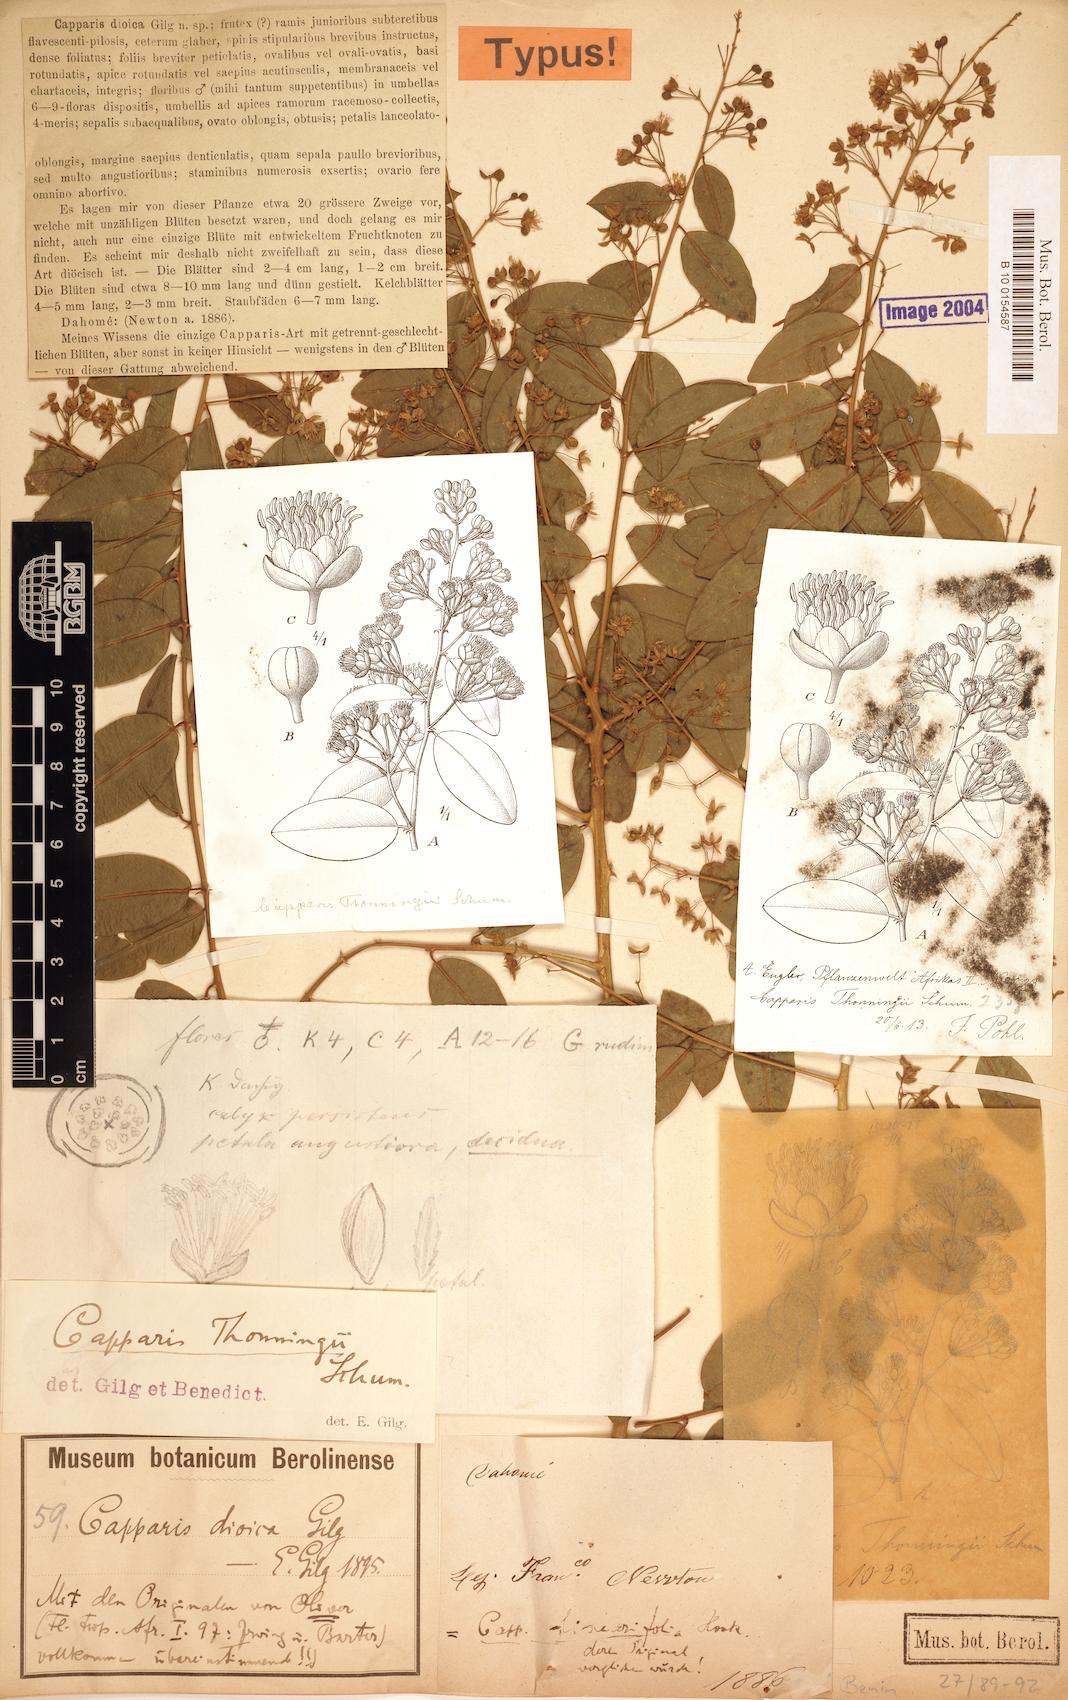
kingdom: Plantae
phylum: Tracheophyta
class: Magnoliopsida
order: Brassicales
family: Capparaceae
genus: Capparis
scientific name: Capparis brassii
